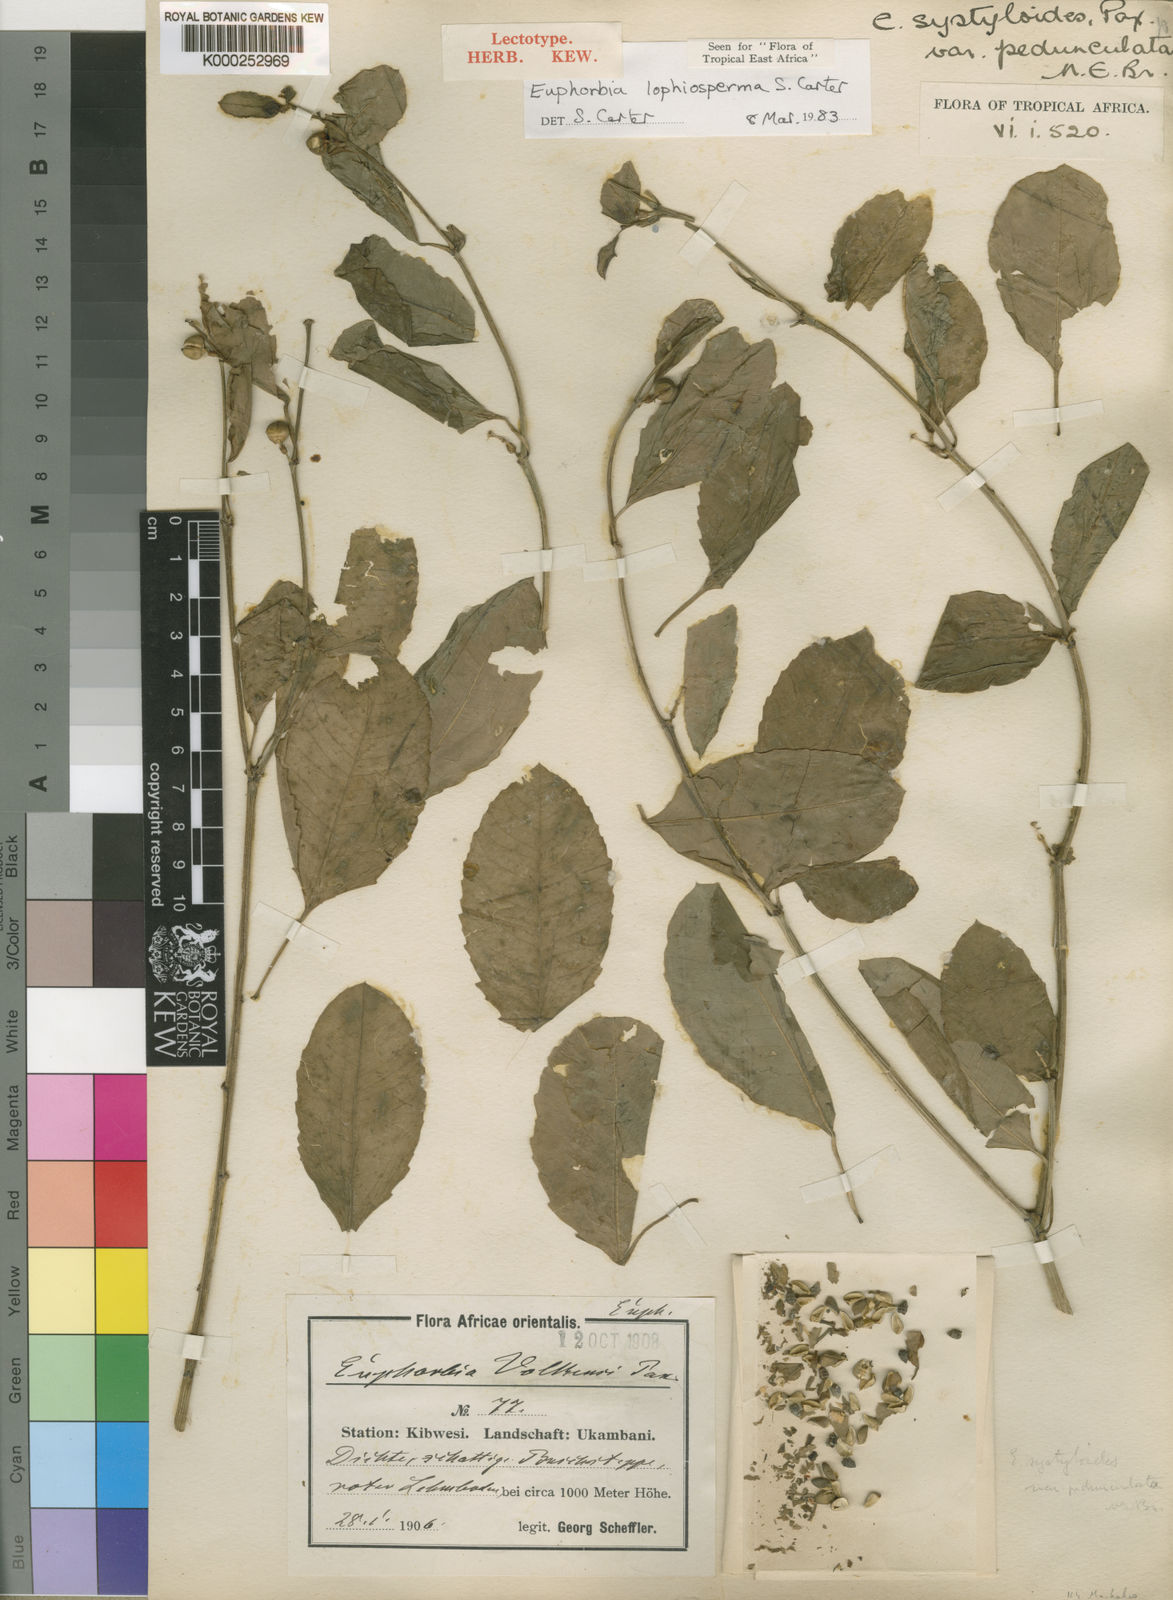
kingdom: Plantae
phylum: Tracheophyta
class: Magnoliopsida
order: Malpighiales
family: Euphorbiaceae
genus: Euphorbia
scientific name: Euphorbia lophiosperma
